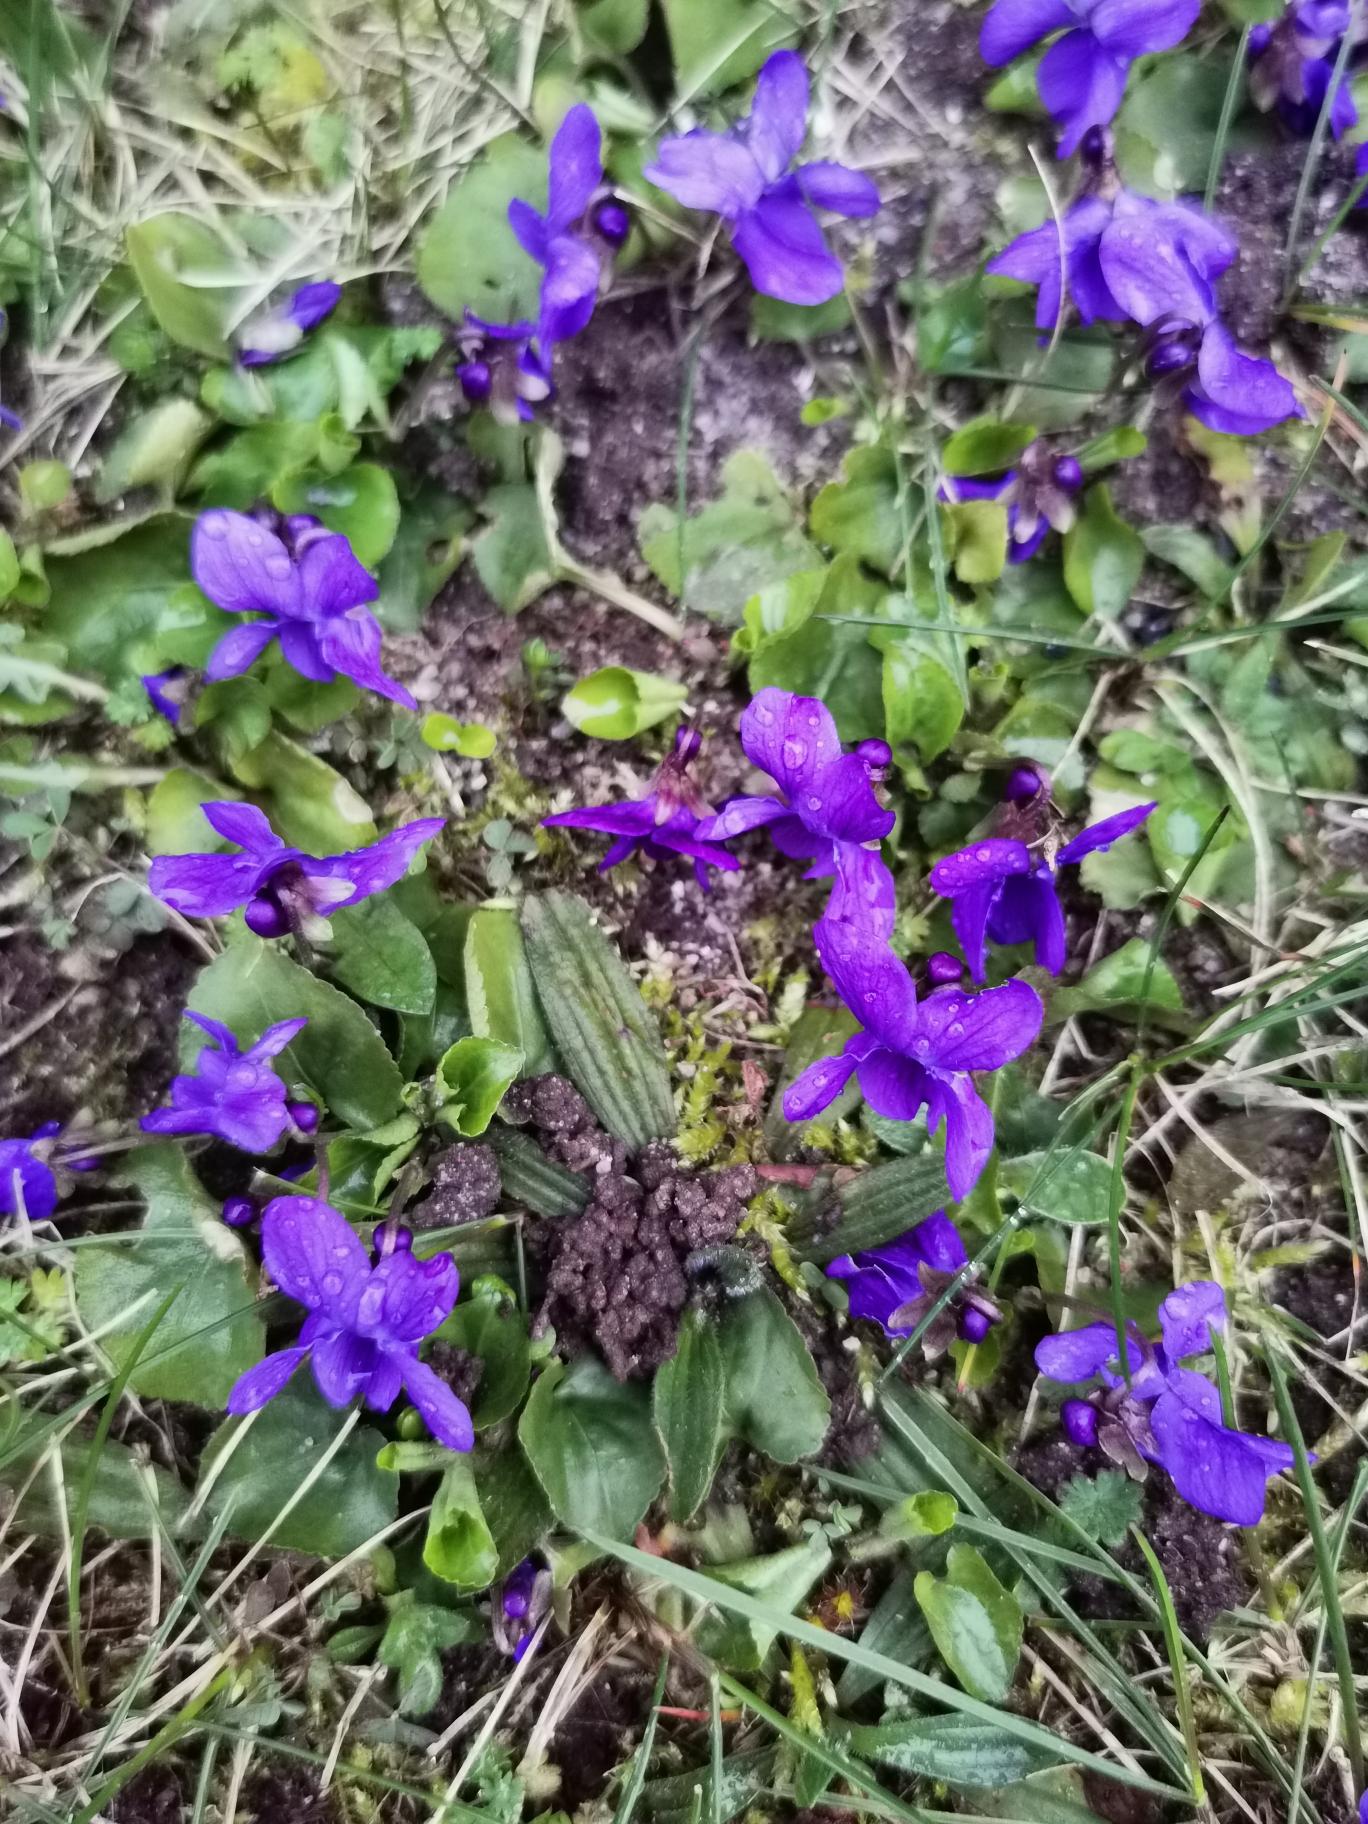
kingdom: Plantae
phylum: Tracheophyta
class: Magnoliopsida
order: Malpighiales
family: Violaceae
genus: Viola
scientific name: Viola odorata
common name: Marts-viol
